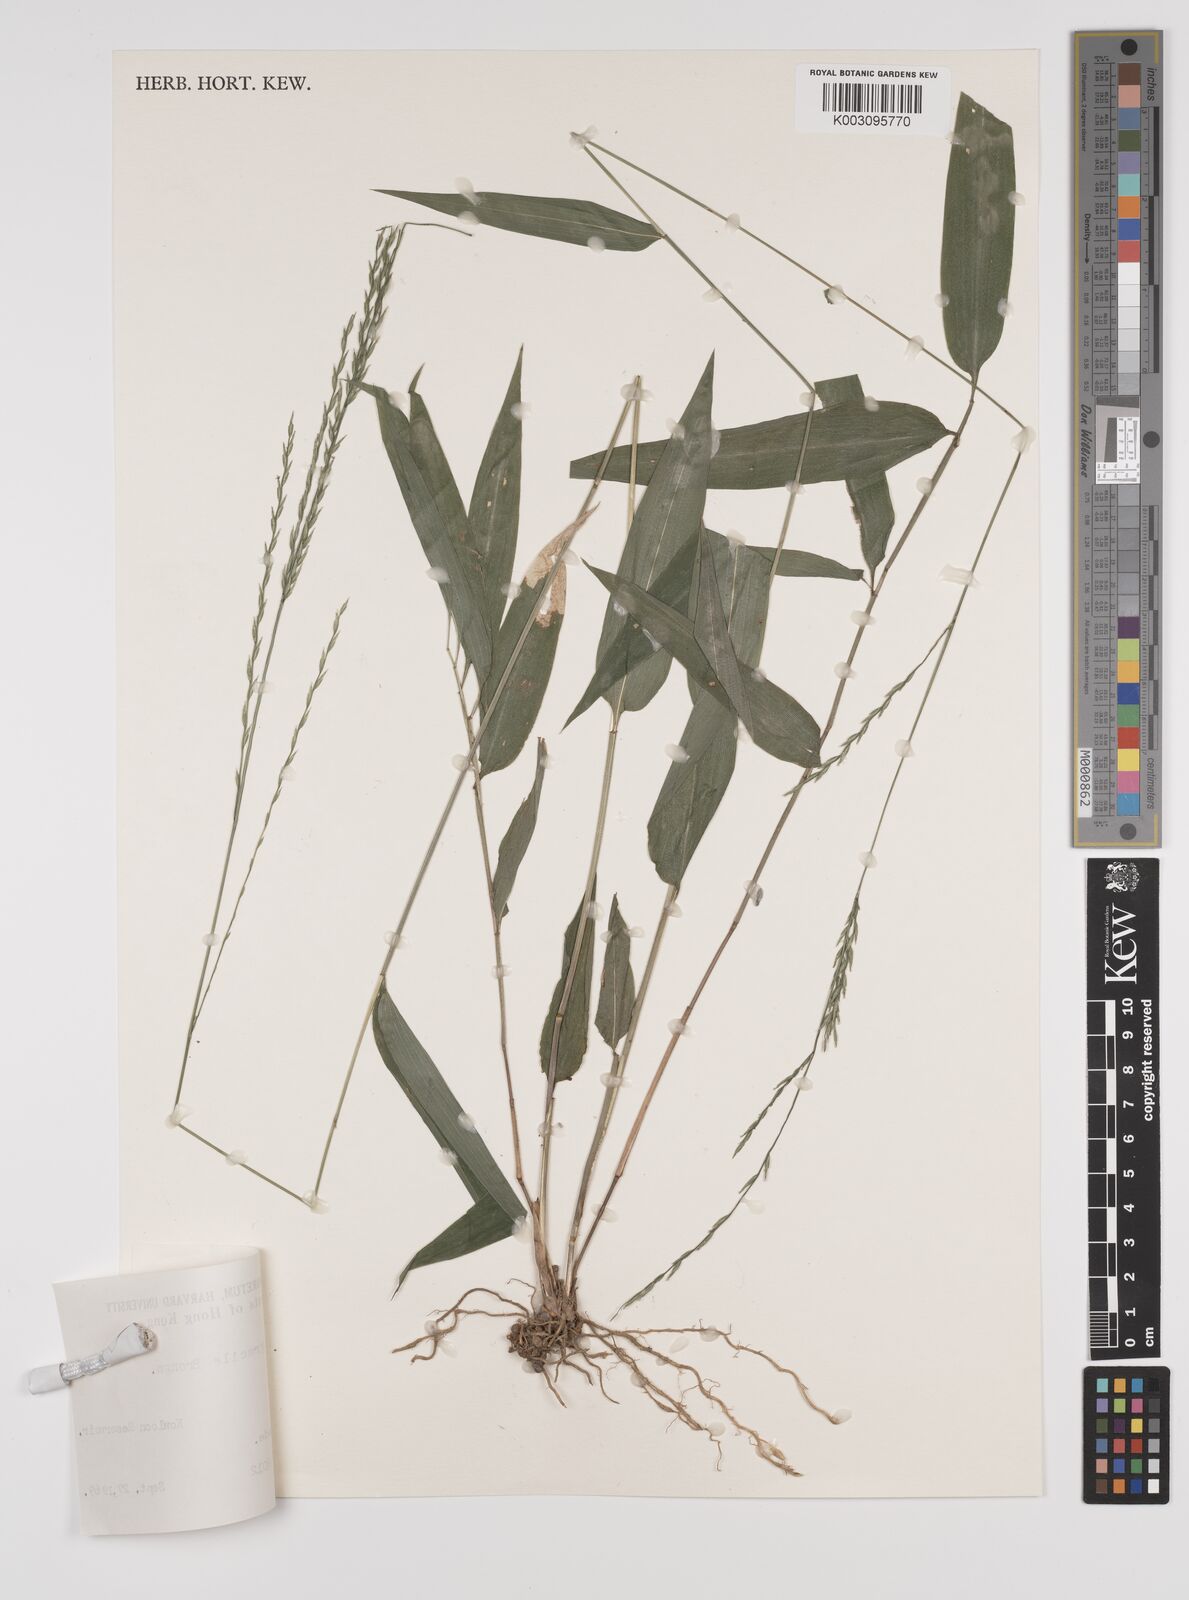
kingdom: Plantae
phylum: Tracheophyta
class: Liliopsida
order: Poales
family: Poaceae
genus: Lophatherum
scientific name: Lophatherum gracile
